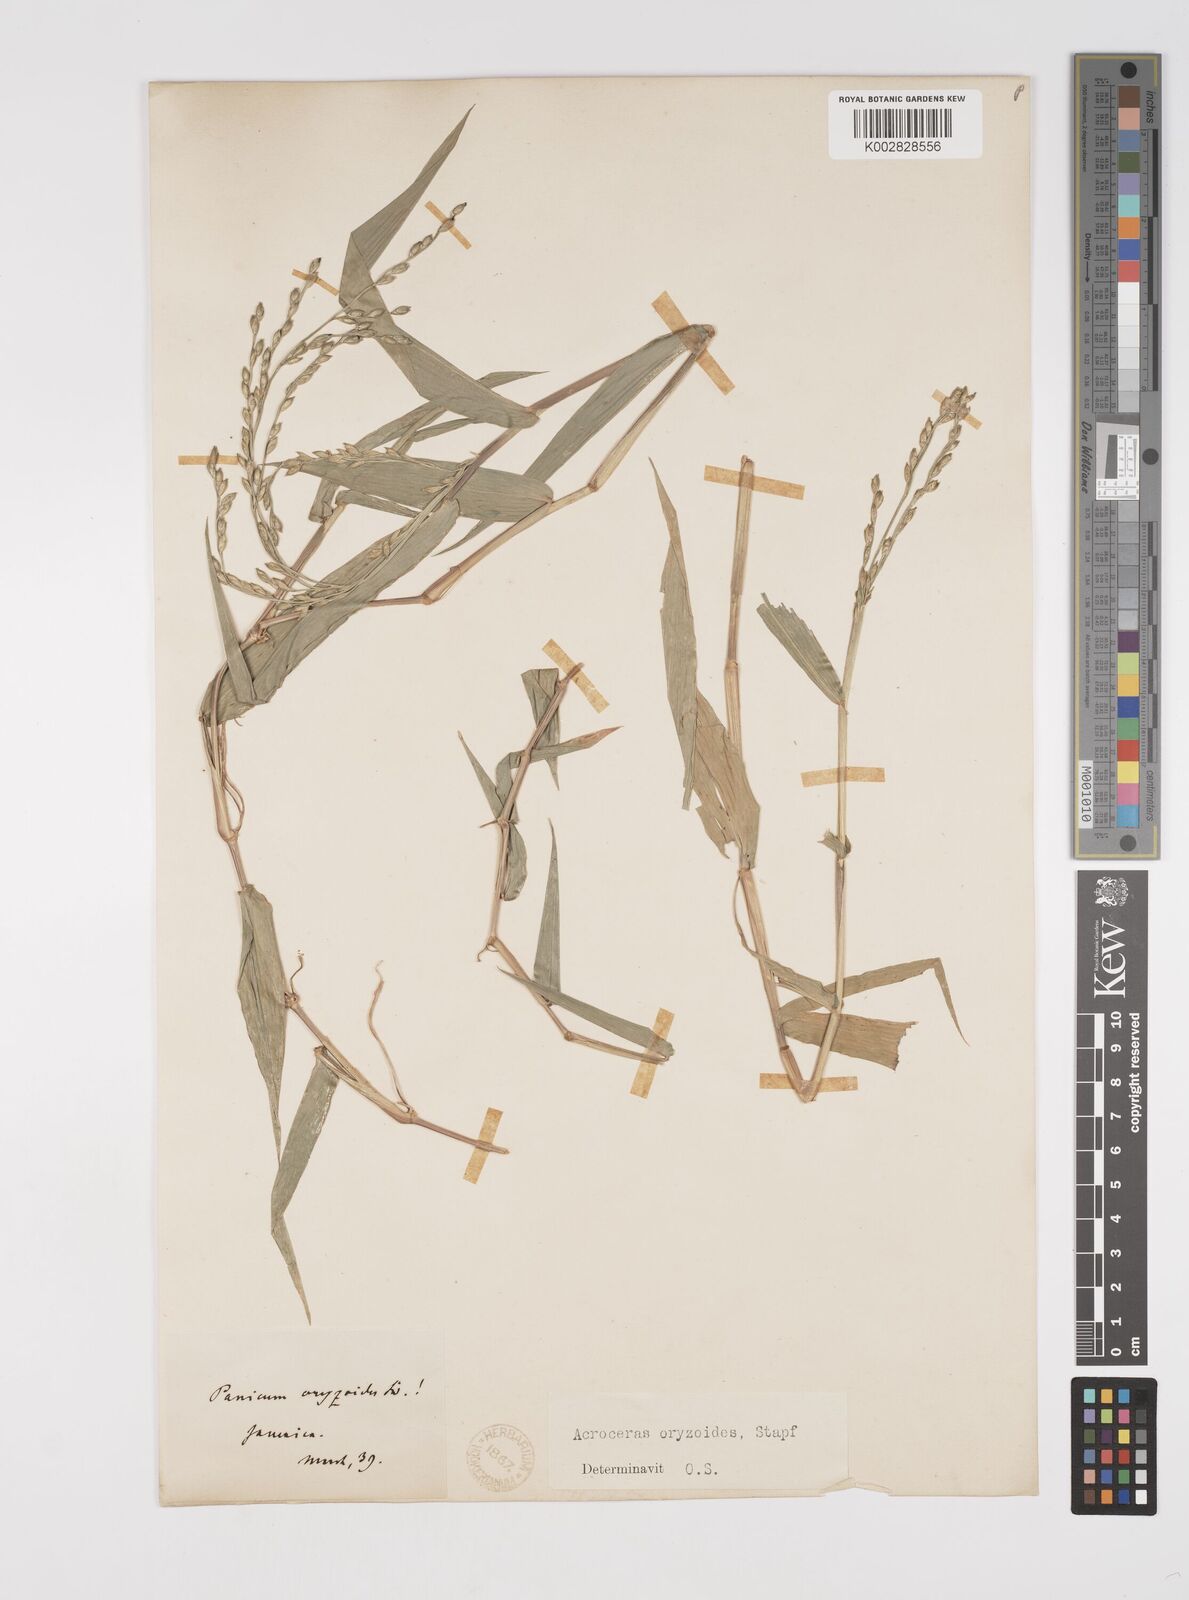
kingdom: Plantae
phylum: Tracheophyta
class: Liliopsida
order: Poales
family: Poaceae
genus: Acroceras
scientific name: Acroceras zizanioides
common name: Oat grass
